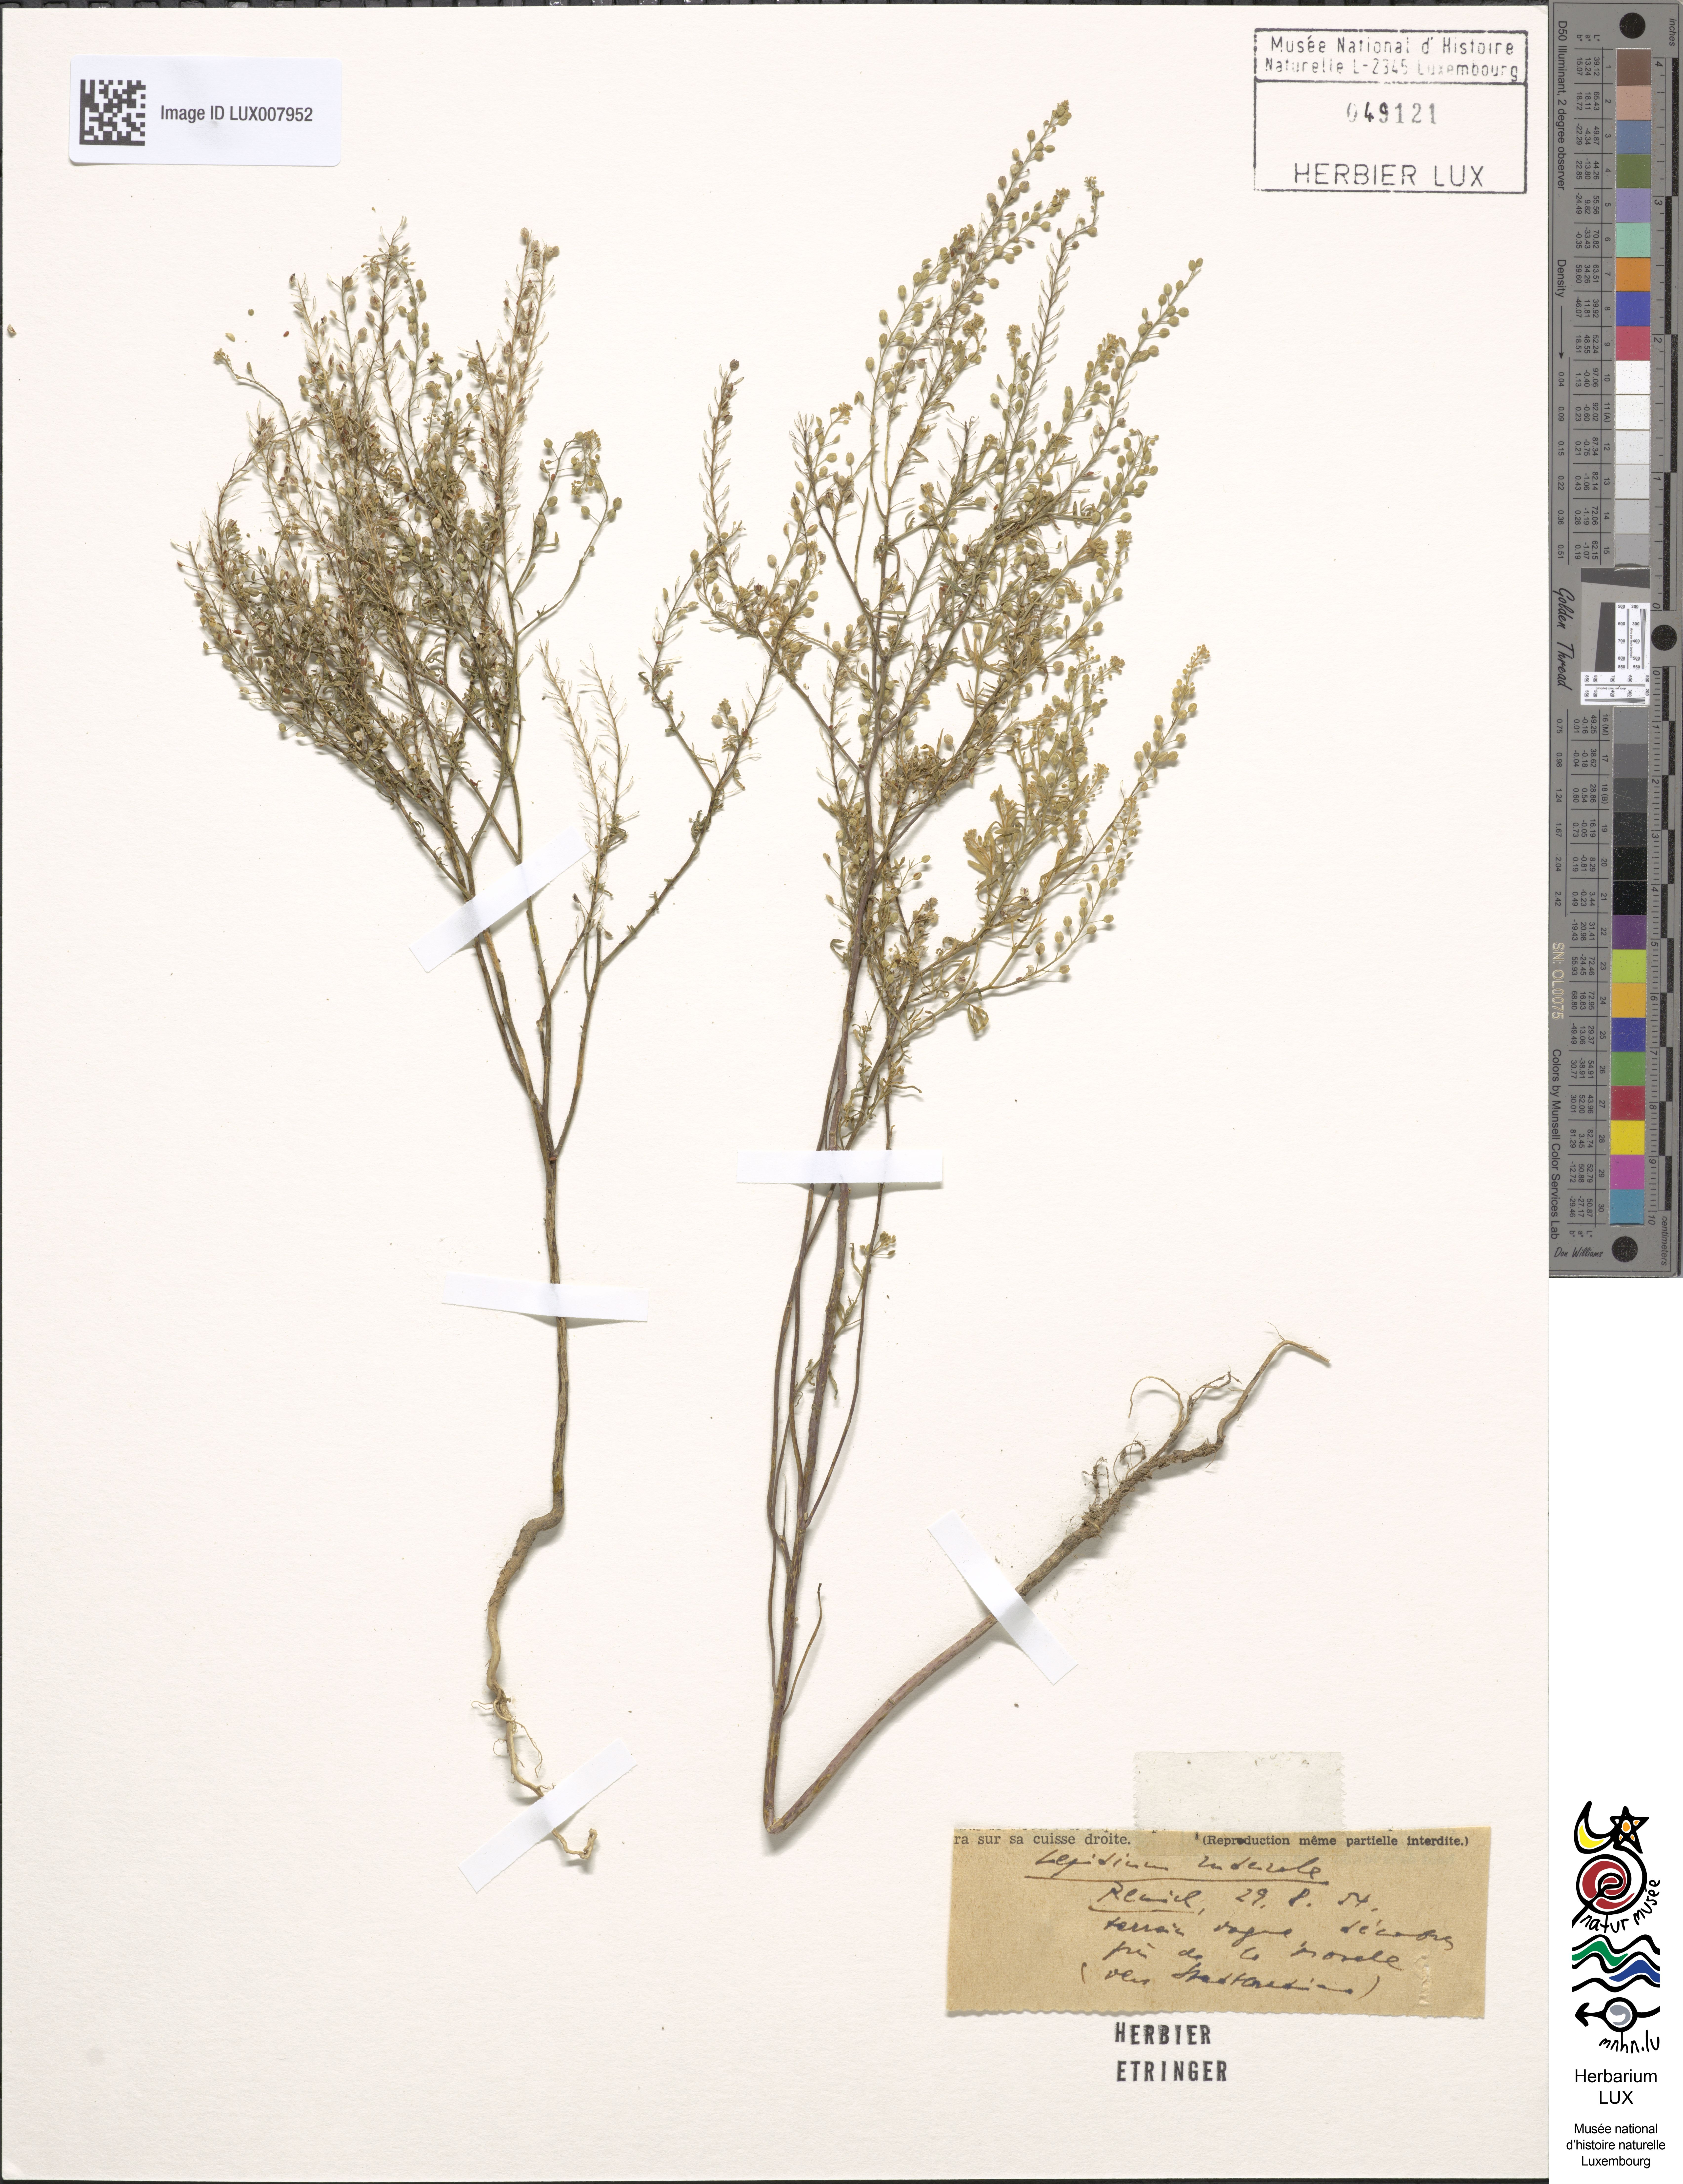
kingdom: Plantae
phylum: Tracheophyta
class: Magnoliopsida
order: Brassicales
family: Brassicaceae
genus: Lepidium
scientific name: Lepidium ruderale
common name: Narrow-leaved pepperwort
